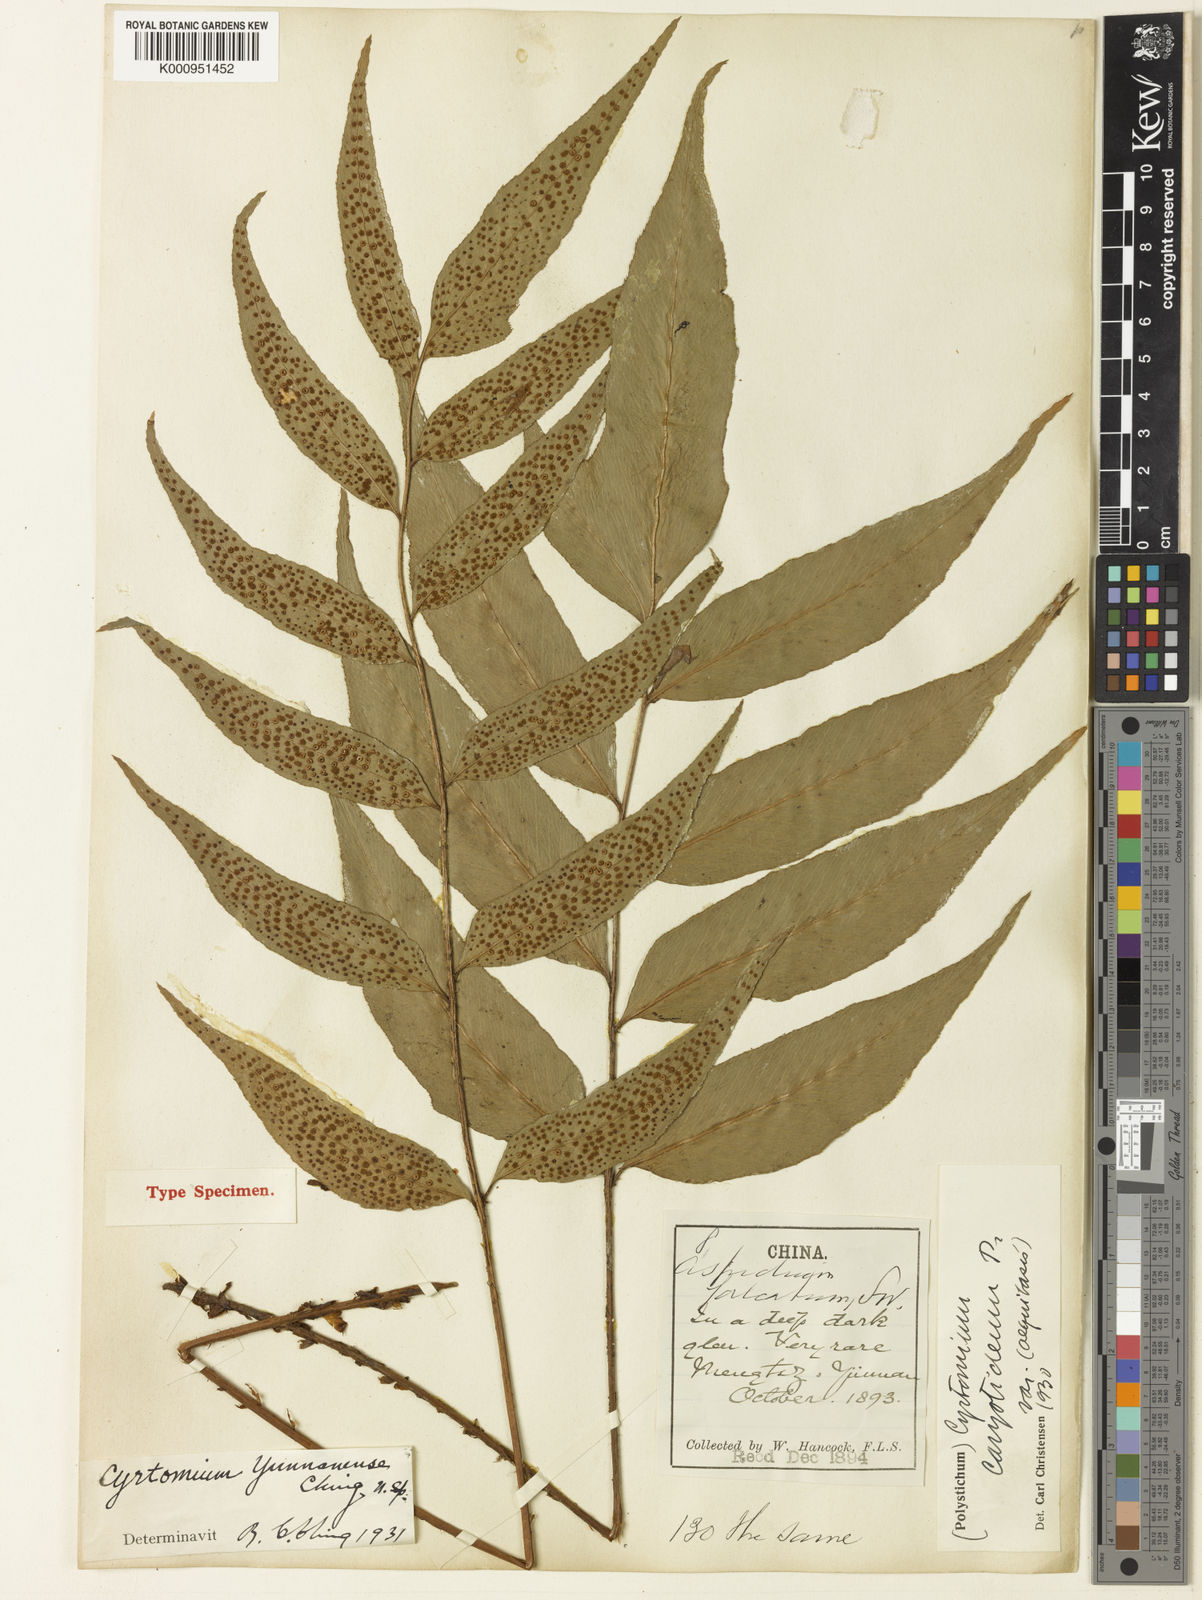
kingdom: Plantae
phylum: Tracheophyta
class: Polypodiopsida
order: Polypodiales
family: Thelypteridaceae
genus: Christella
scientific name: Christella euphlebia
